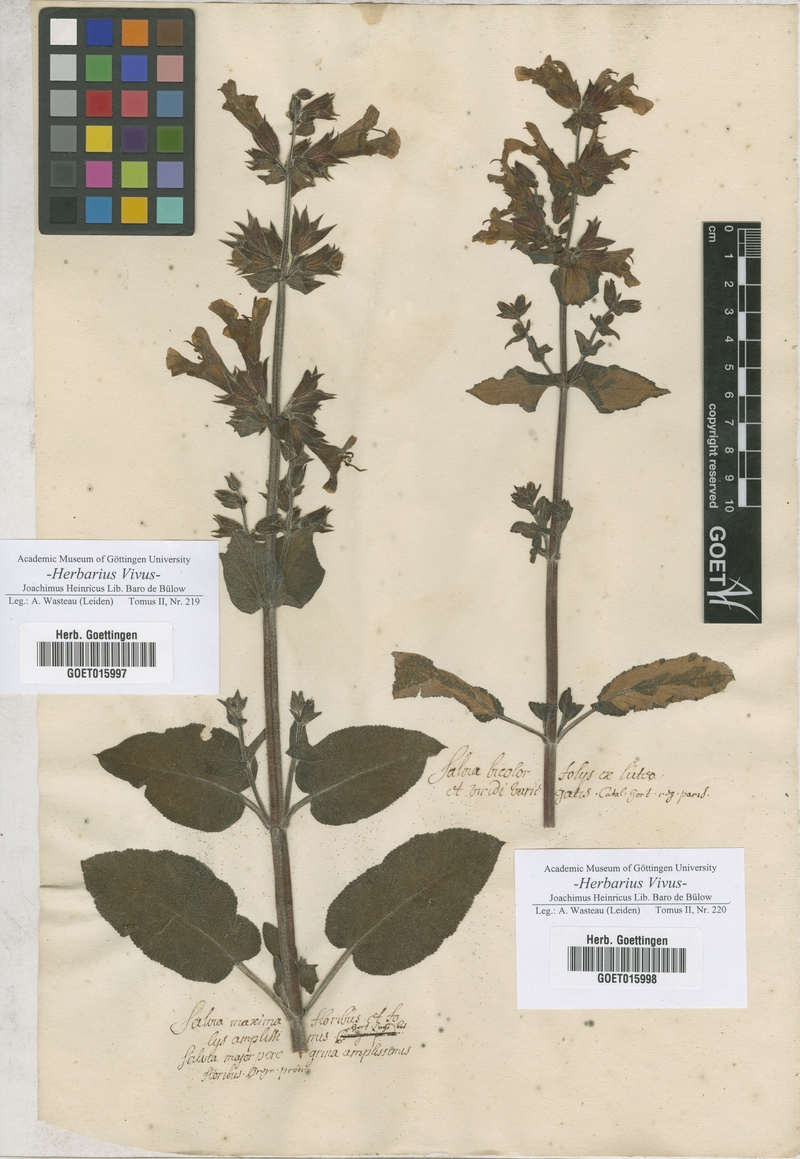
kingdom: Plantae
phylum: Tracheophyta
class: Magnoliopsida
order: Lamiales
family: Lamiaceae
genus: Salvia
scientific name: Salvia
